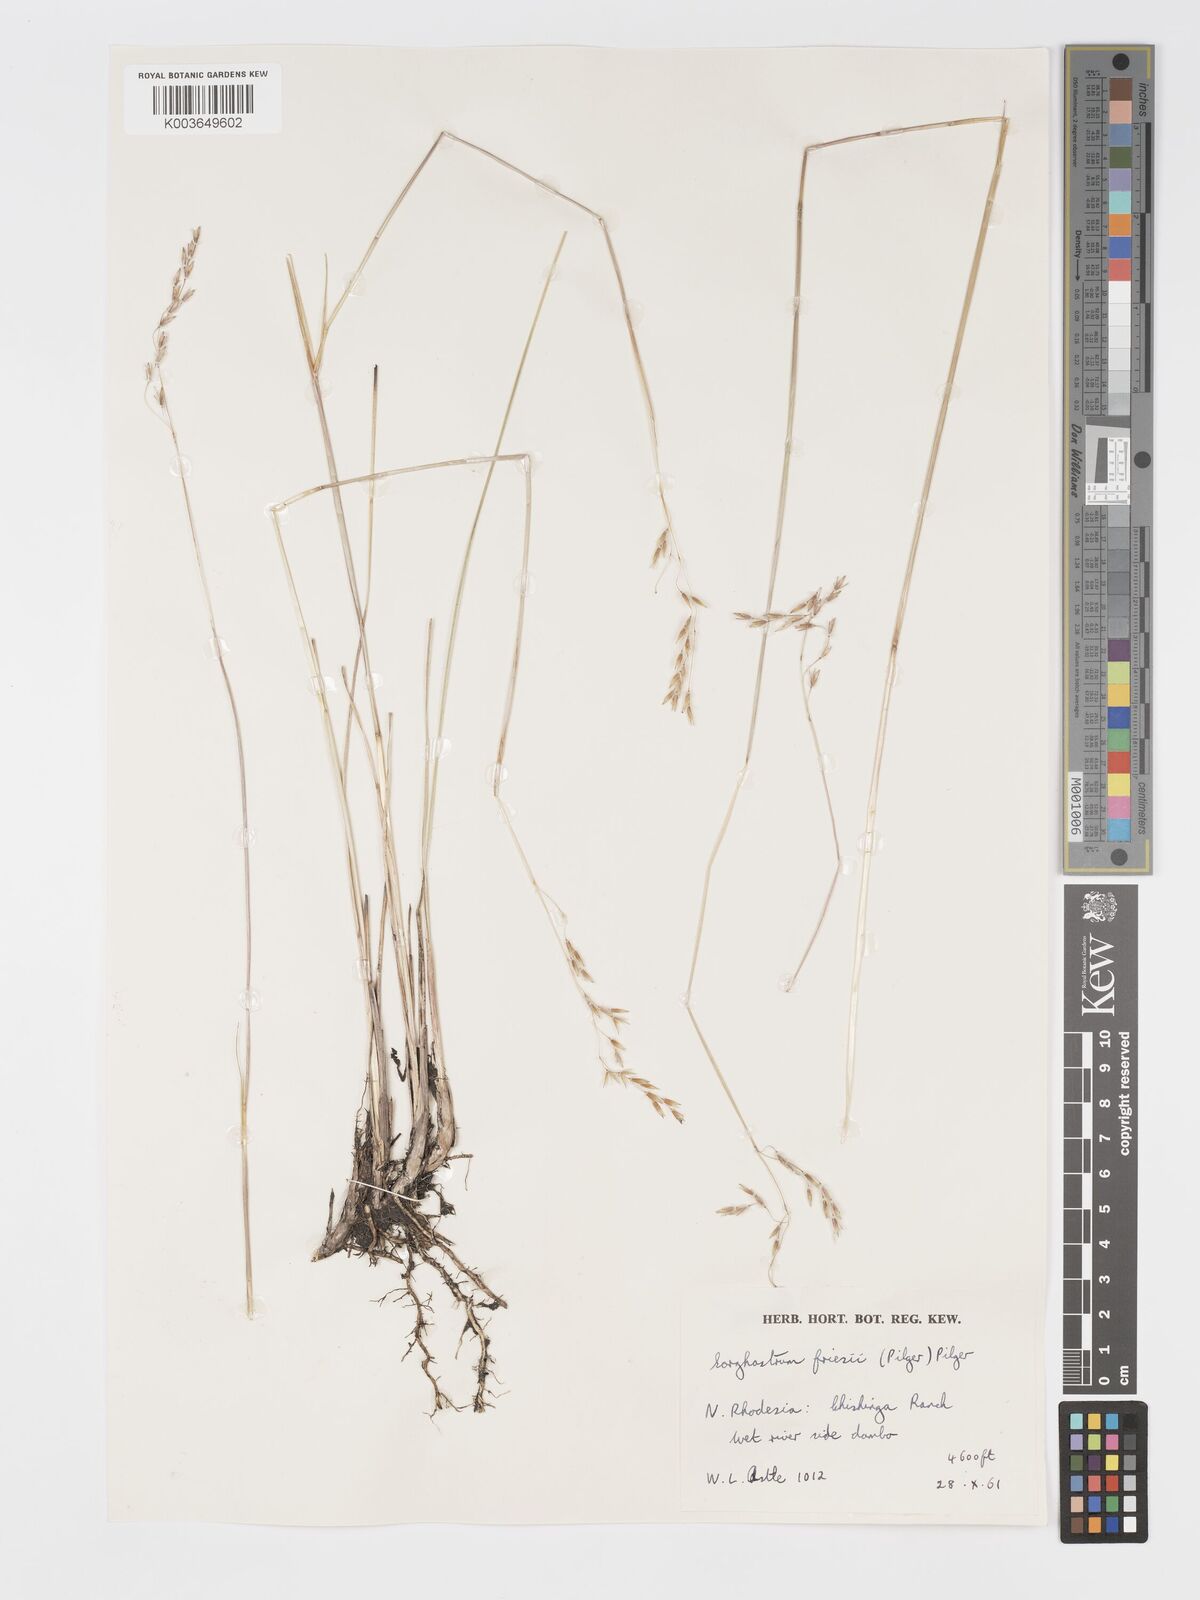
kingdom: Plantae
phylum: Tracheophyta
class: Liliopsida
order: Poales
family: Poaceae
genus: Sorghastrum
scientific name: Sorghastrum pogonostachyum
